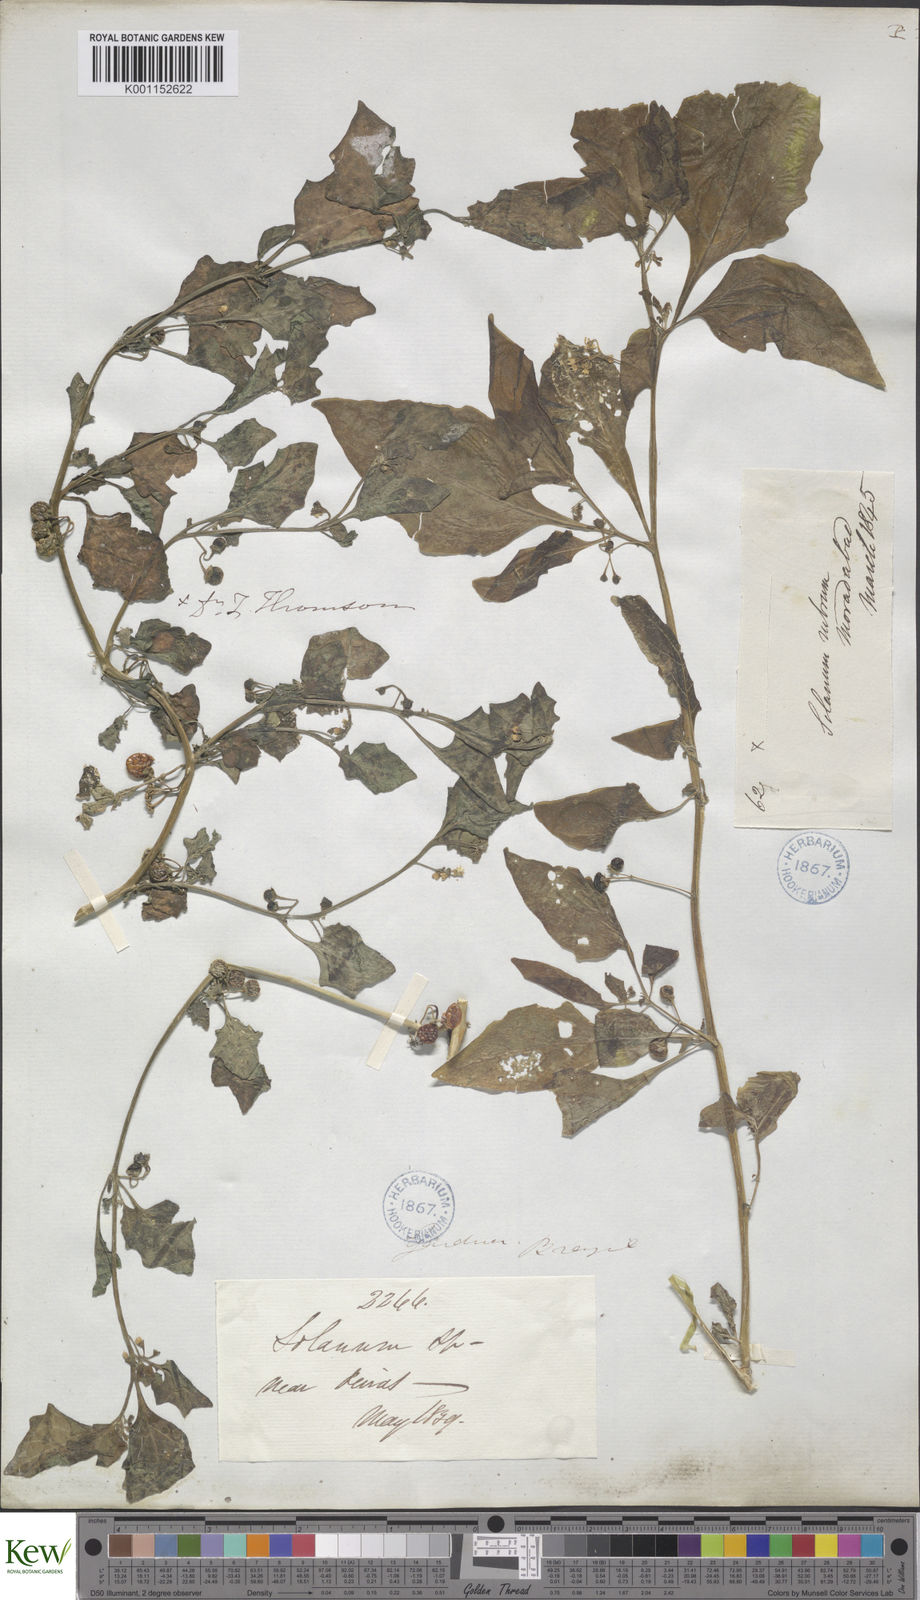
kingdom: Plantae
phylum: Tracheophyta
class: Magnoliopsida
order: Solanales
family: Solanaceae
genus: Solanum
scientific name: Solanum nigrum
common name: Black nightshade
